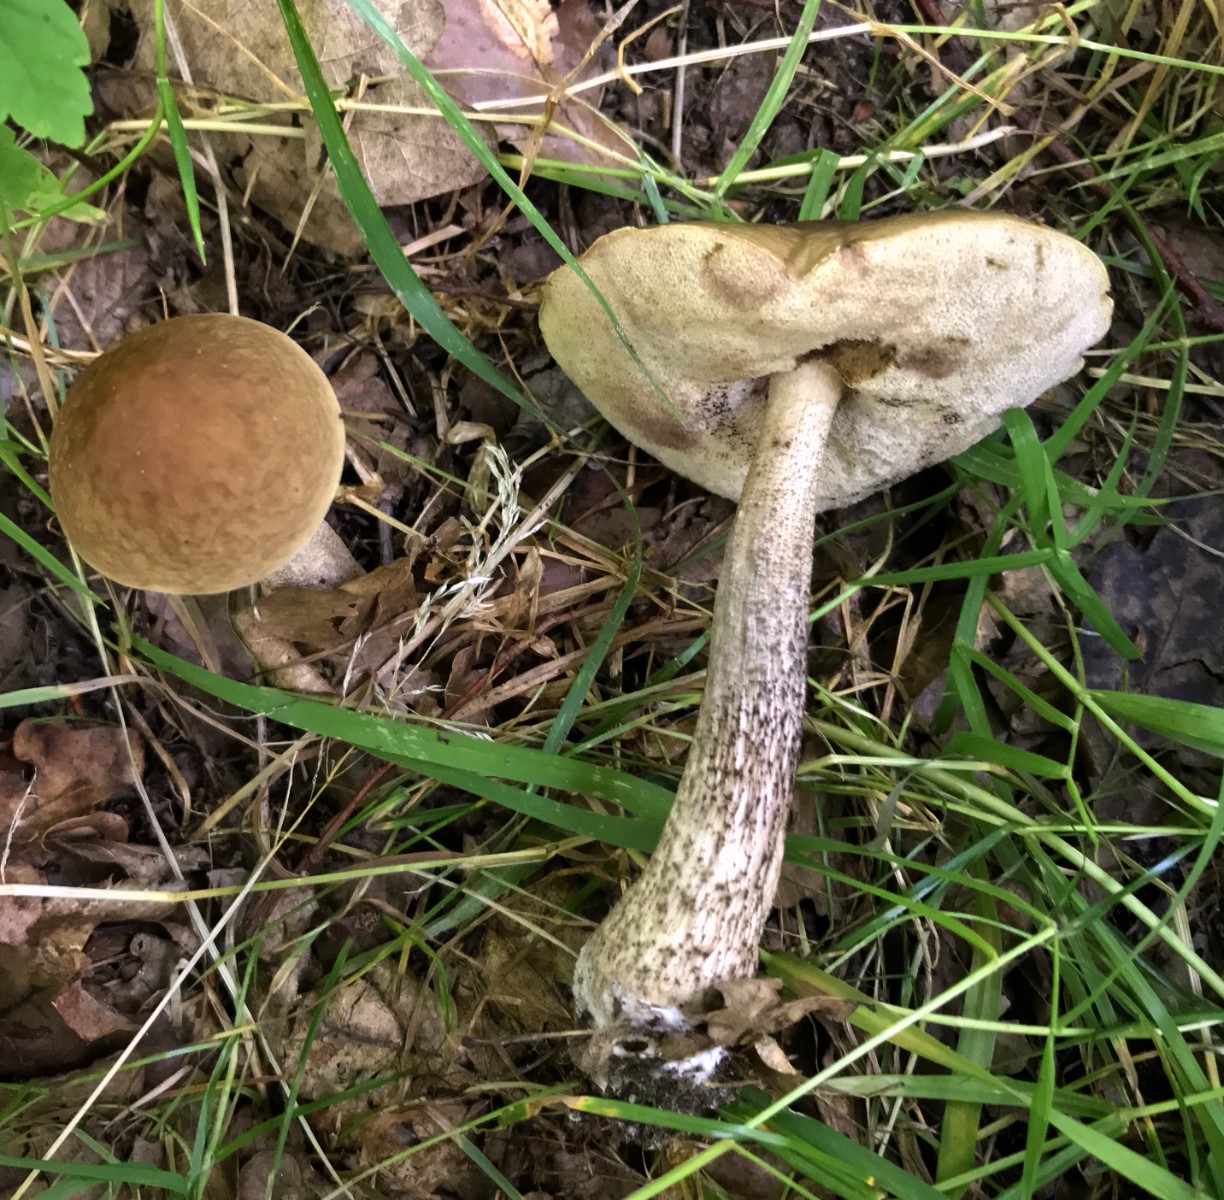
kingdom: Fungi
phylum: Basidiomycota
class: Agaricomycetes
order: Boletales
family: Boletaceae
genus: Leccinellum
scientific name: Leccinellum pseudoscabrum
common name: avnbøg-skælrørhat
